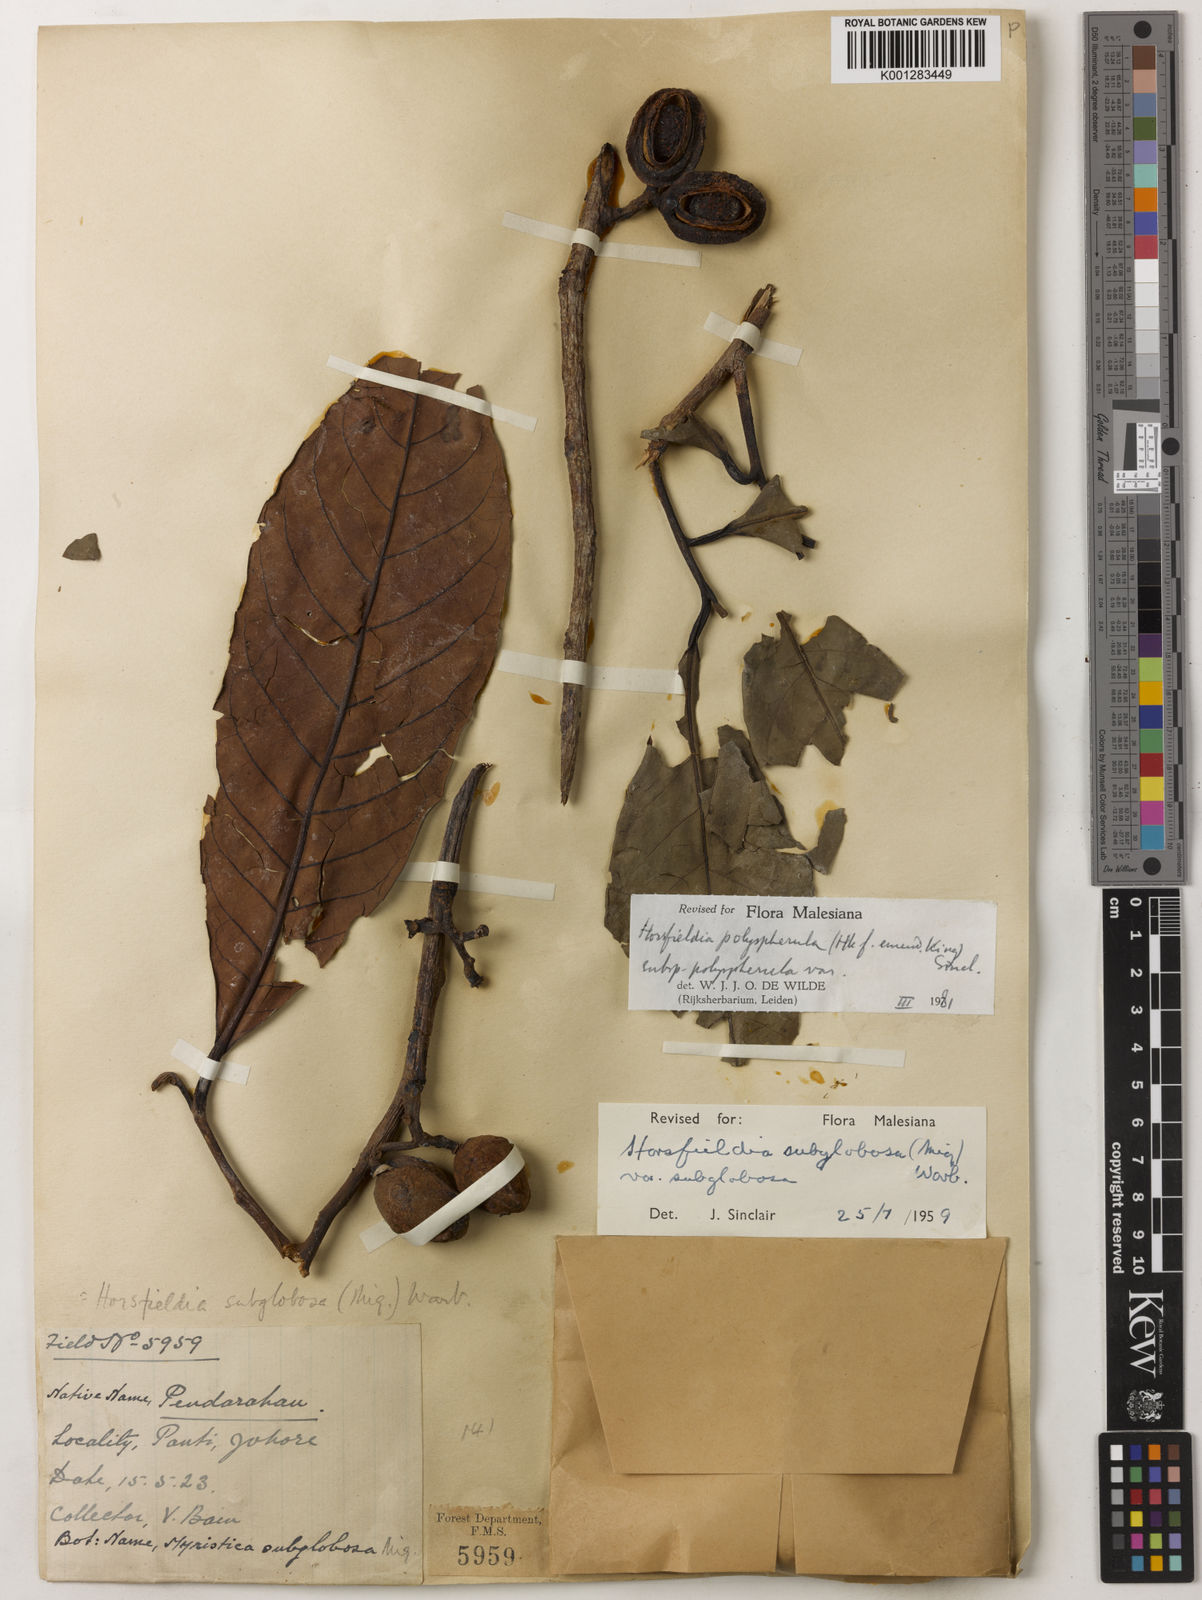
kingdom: Plantae
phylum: Tracheophyta
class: Magnoliopsida
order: Magnoliales
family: Myristicaceae
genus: Horsfieldia
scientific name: Horsfieldia polyspherula
